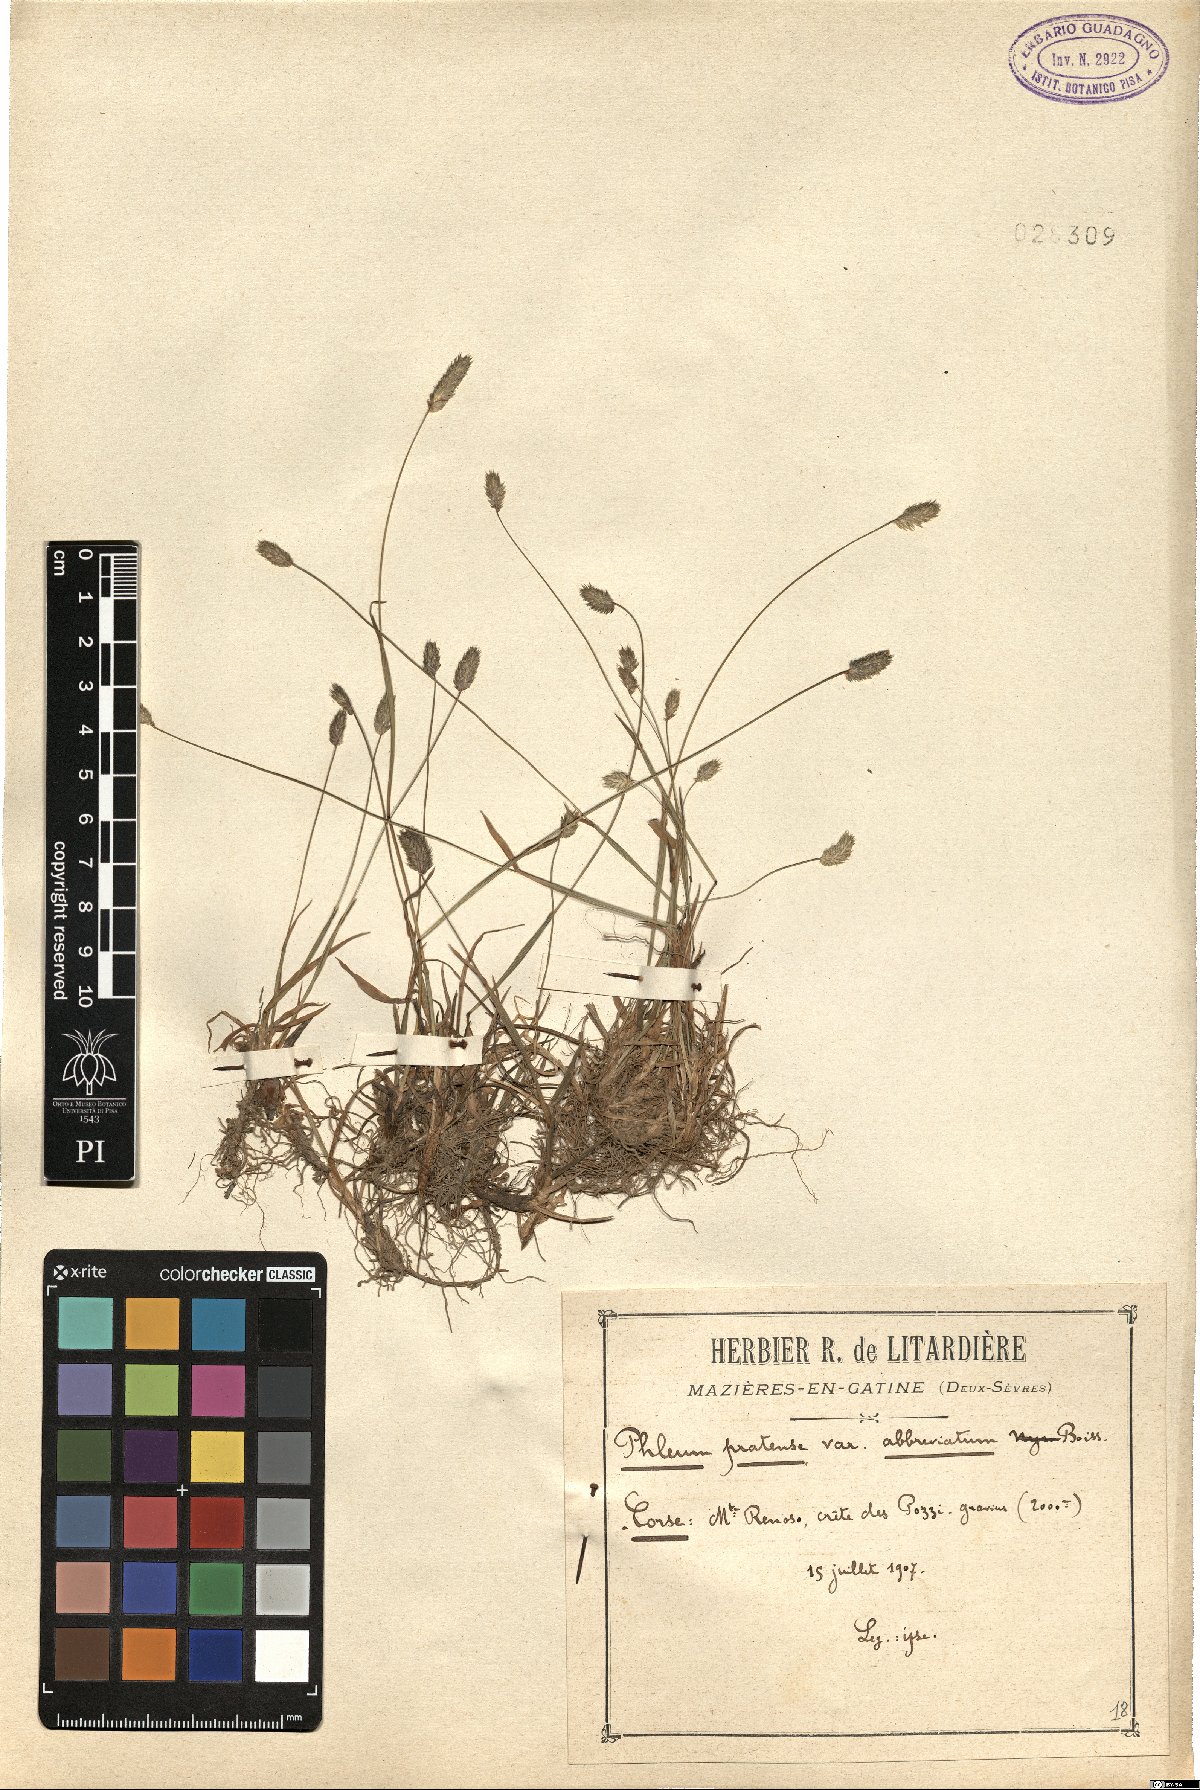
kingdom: Plantae
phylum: Tracheophyta
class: Liliopsida
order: Poales
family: Poaceae
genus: Phleum
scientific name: Phleum bertolonii
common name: Smaller cat's-tail
